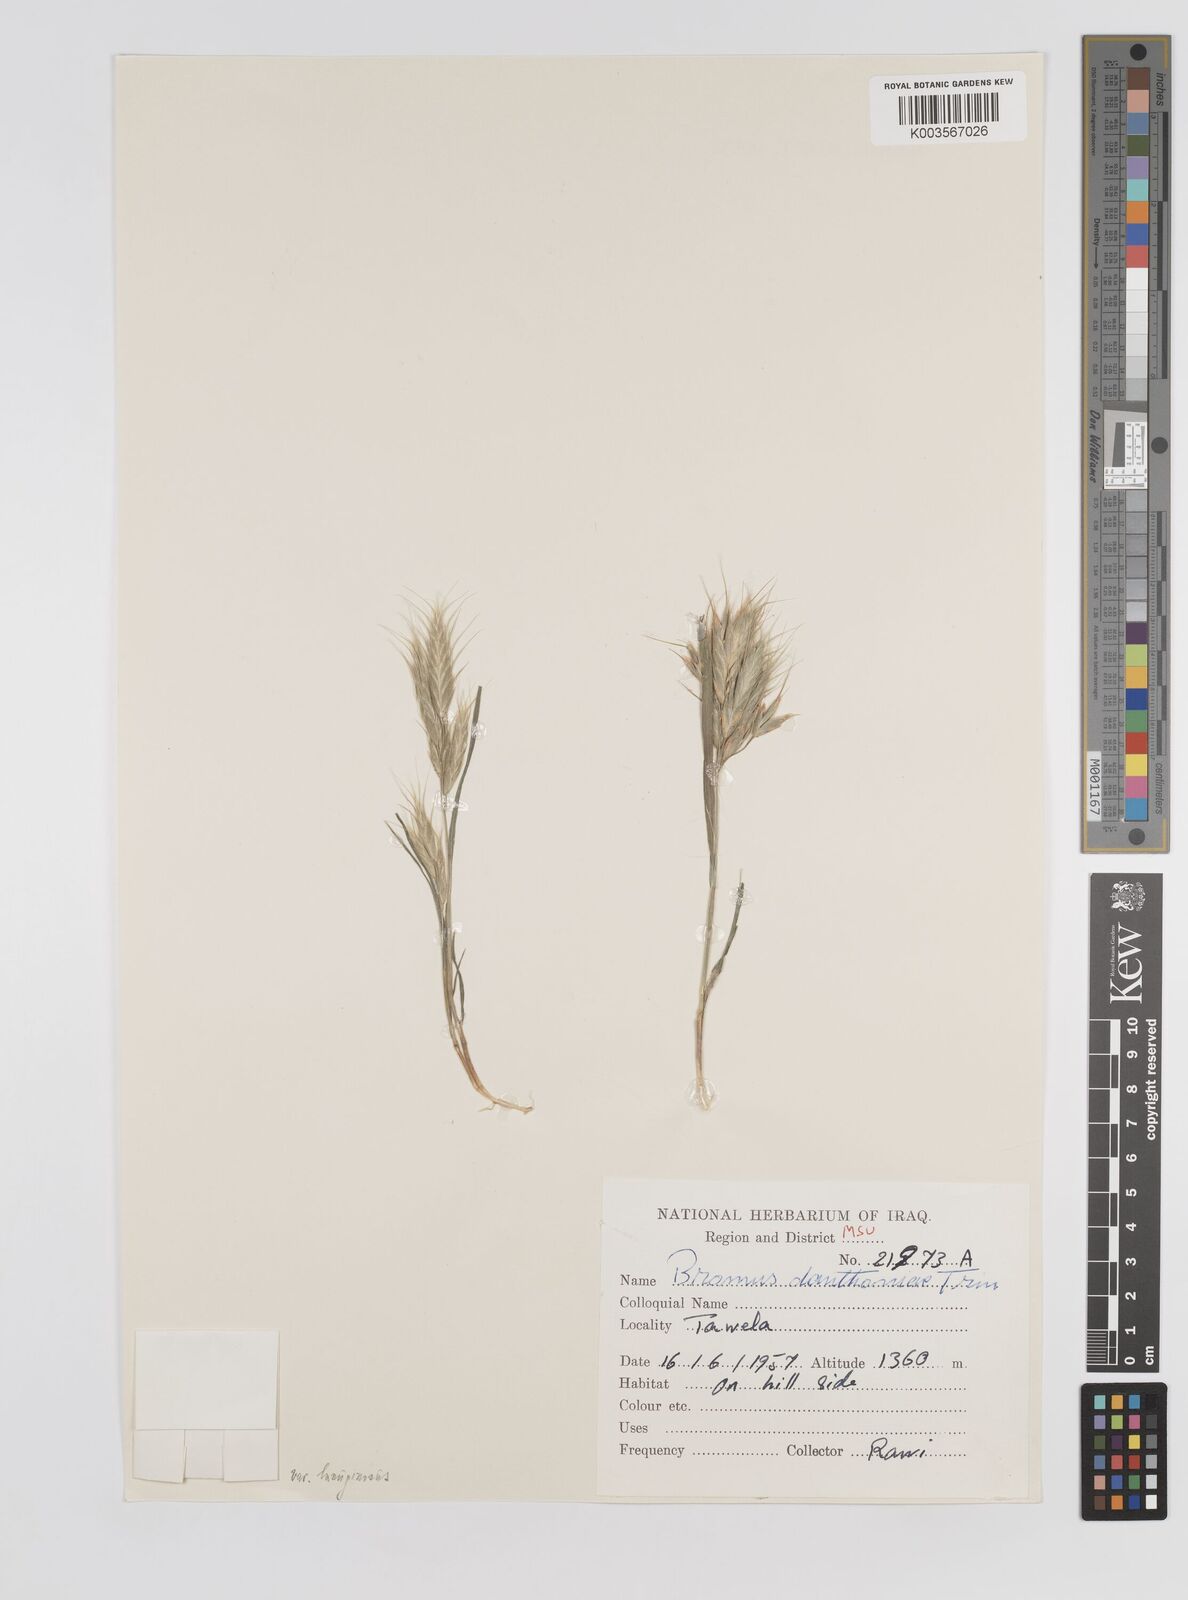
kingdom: Plantae
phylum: Tracheophyta
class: Liliopsida
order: Poales
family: Poaceae
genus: Bromus
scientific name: Bromus danthoniae
